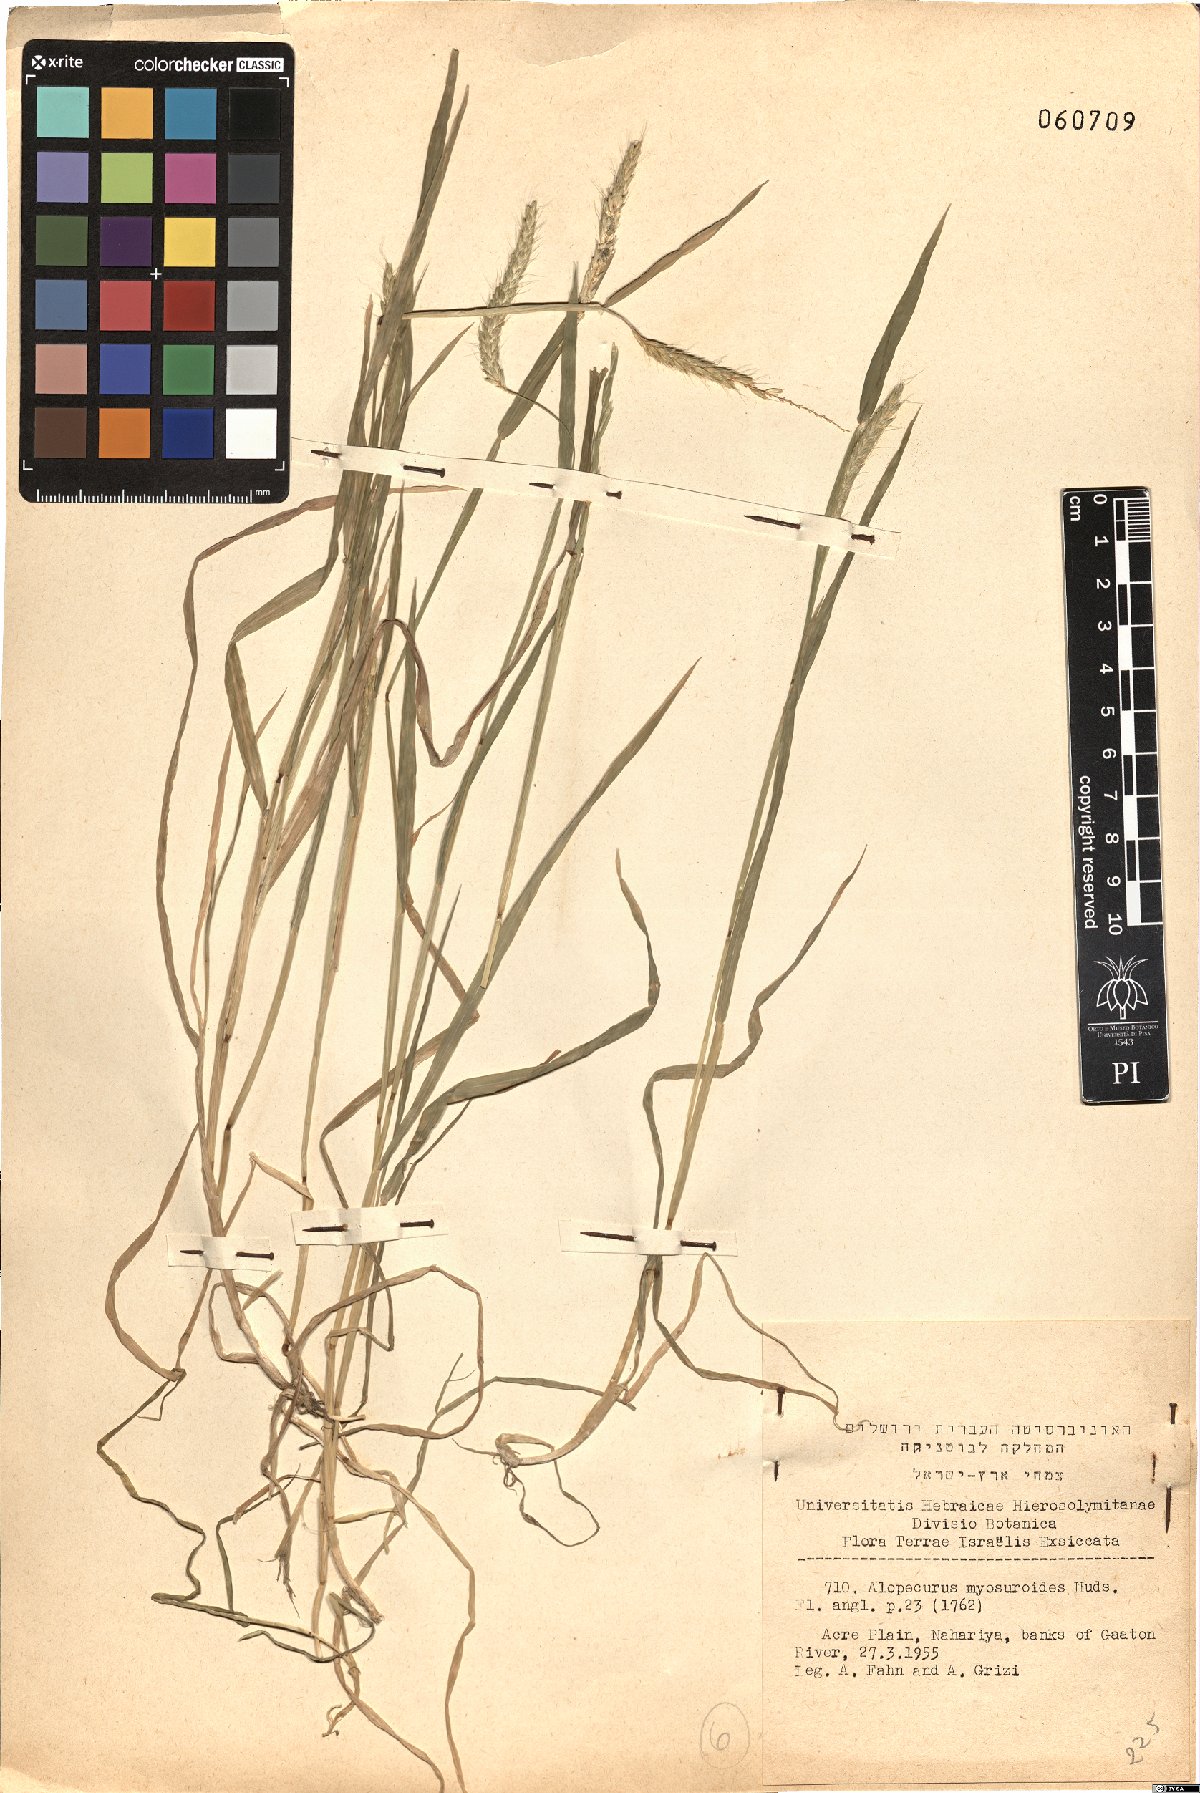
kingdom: Plantae
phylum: Tracheophyta
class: Liliopsida
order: Poales
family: Poaceae
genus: Alopecurus
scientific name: Alopecurus myosuroides
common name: Black-grass
